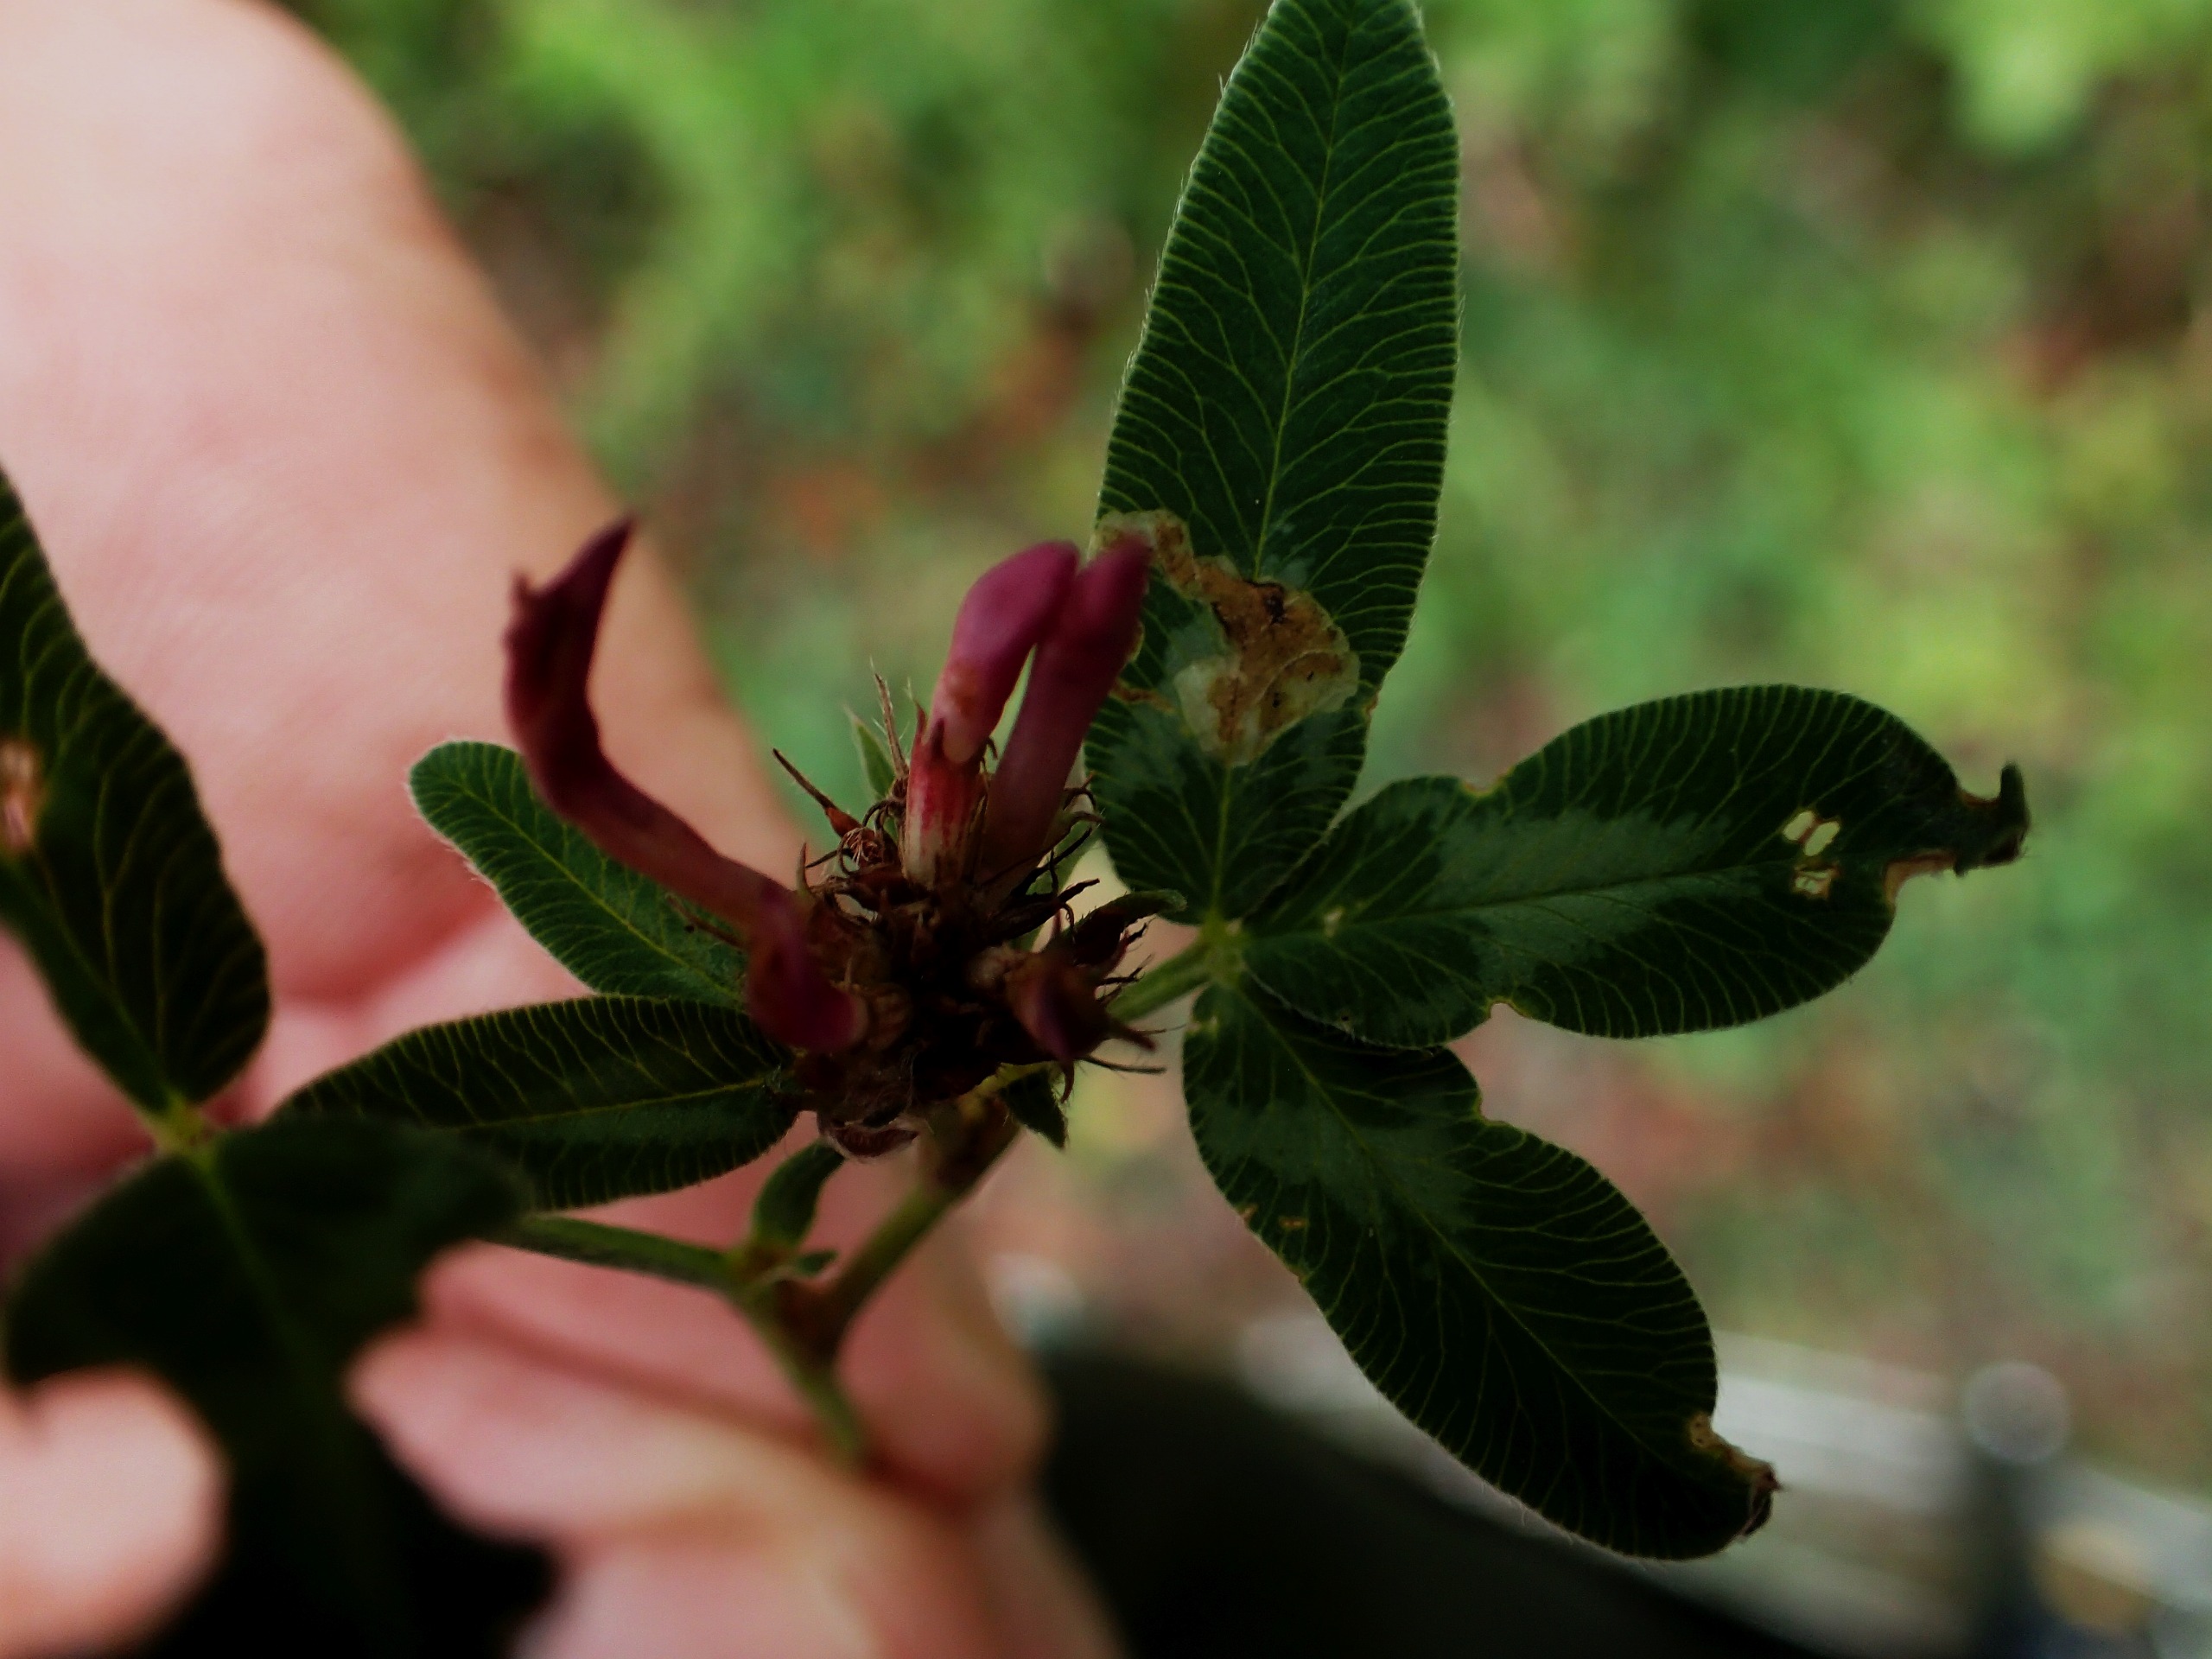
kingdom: Plantae
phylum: Tracheophyta
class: Magnoliopsida
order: Fabales
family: Fabaceae
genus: Trifolium
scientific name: Trifolium medium
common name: Bugtet kløver
